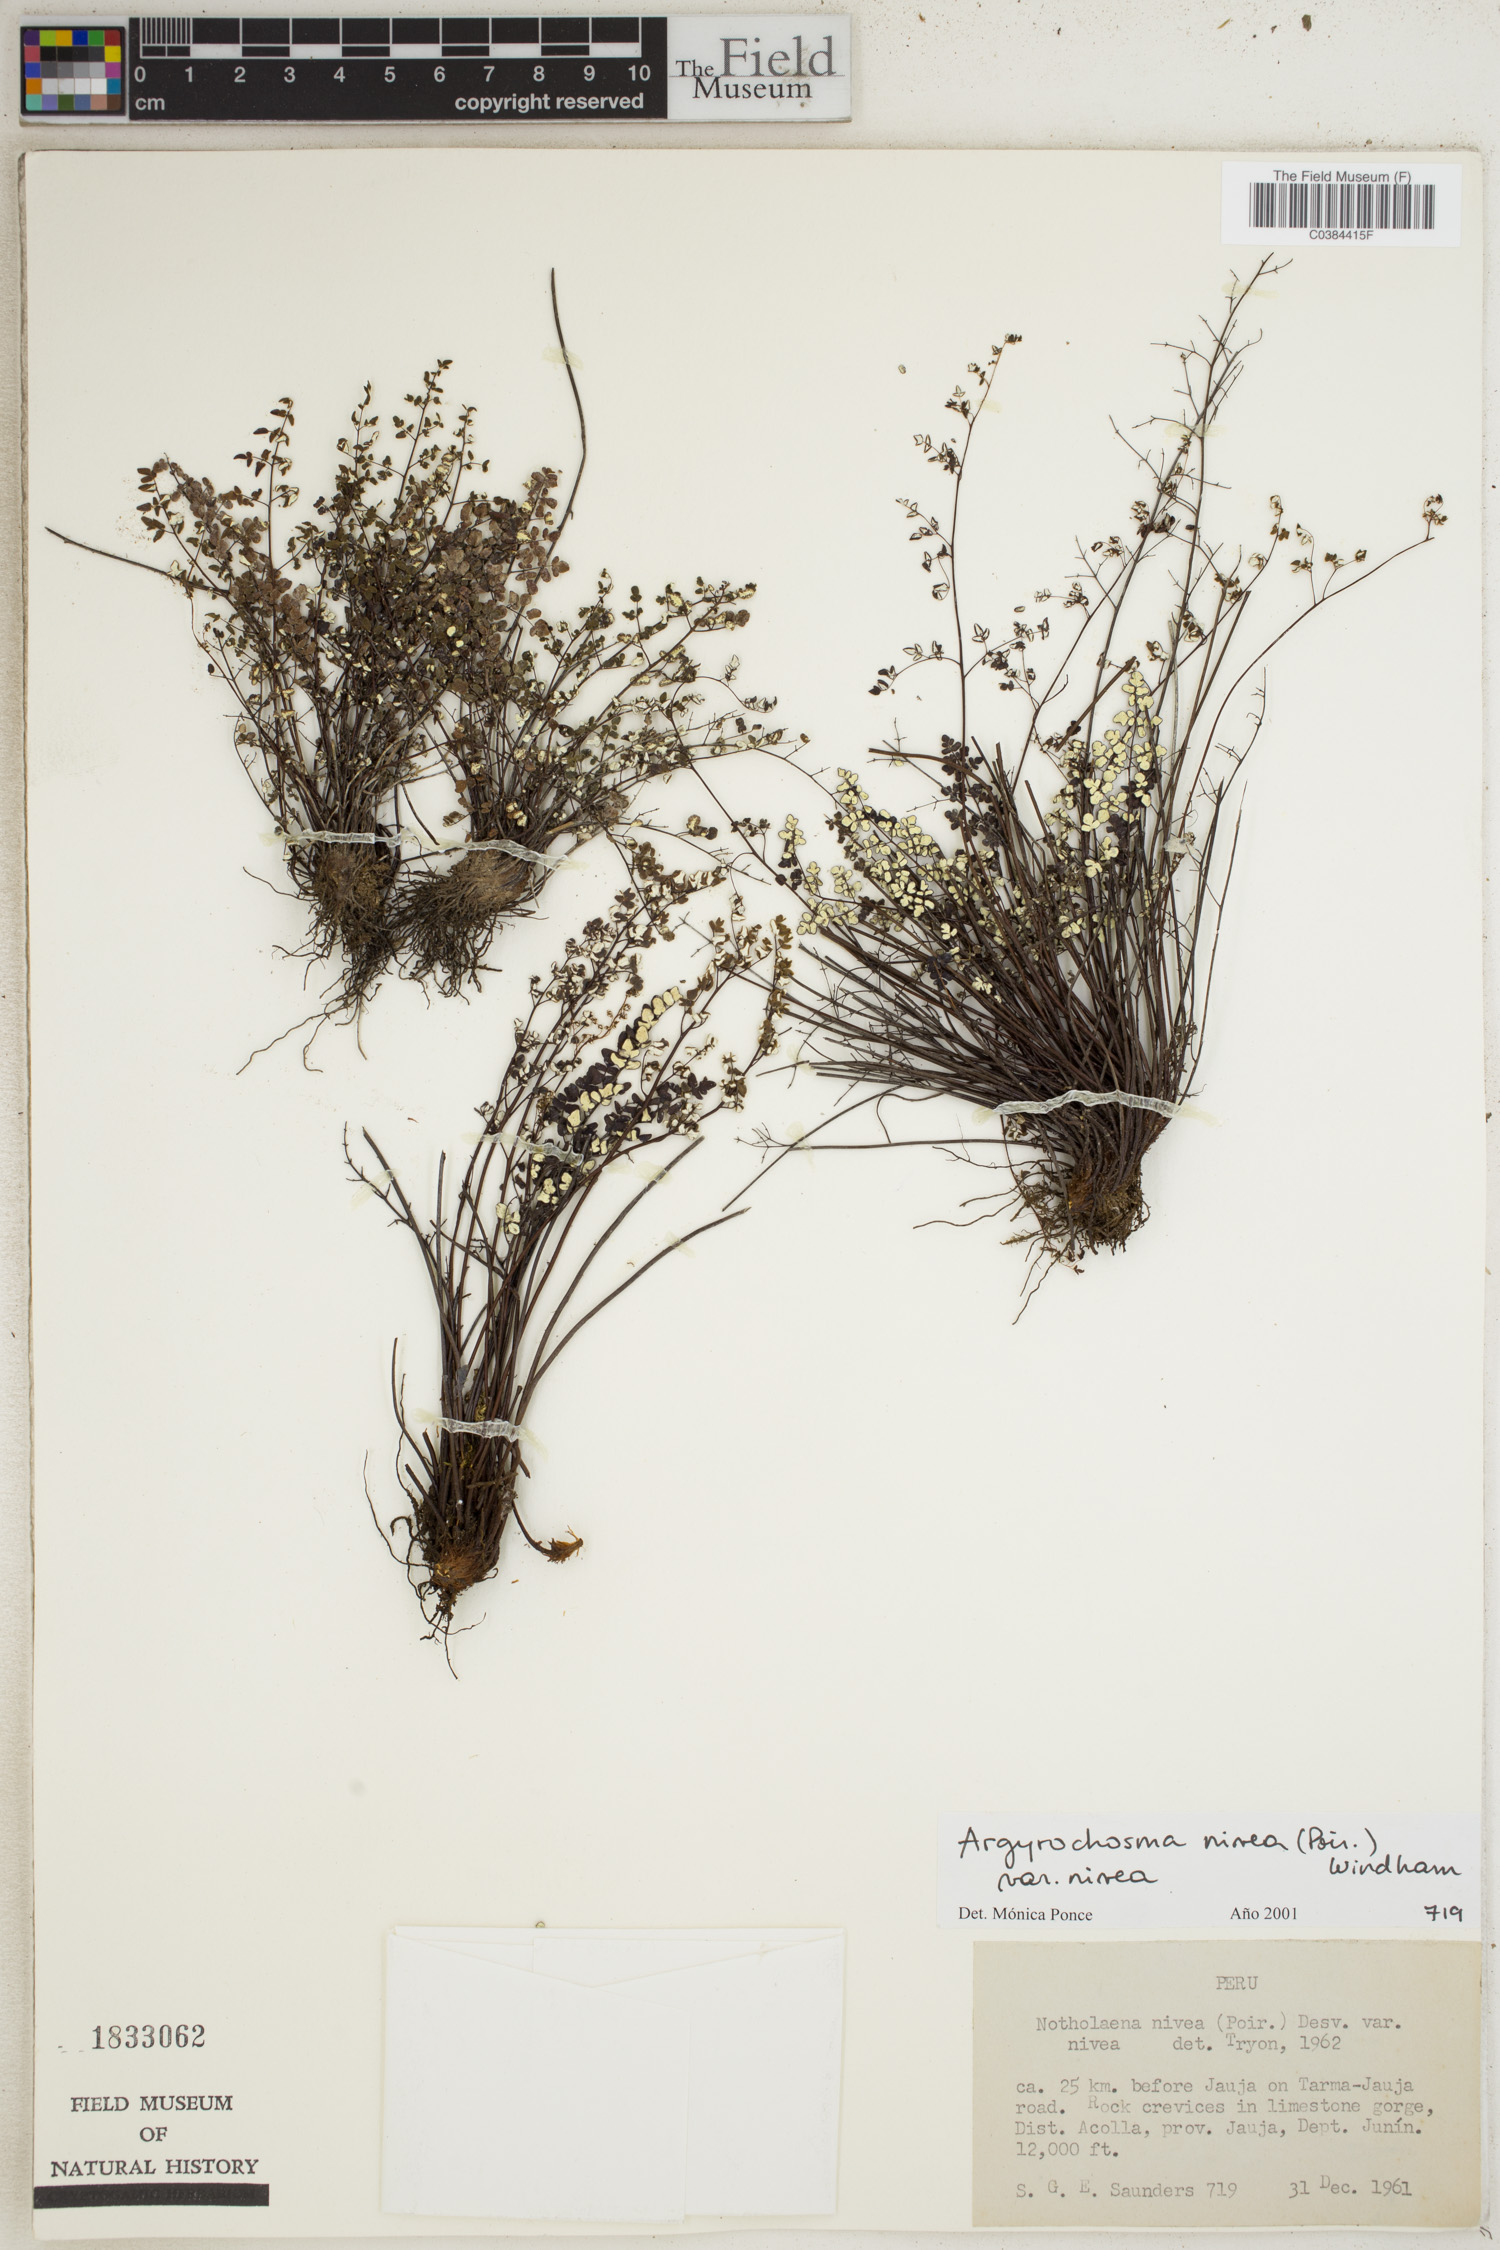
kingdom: Plantae
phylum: Tracheophyta
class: Polypodiopsida
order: Polypodiales
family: Pteridaceae
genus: Argyrochosma
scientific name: Argyrochosma nivea
